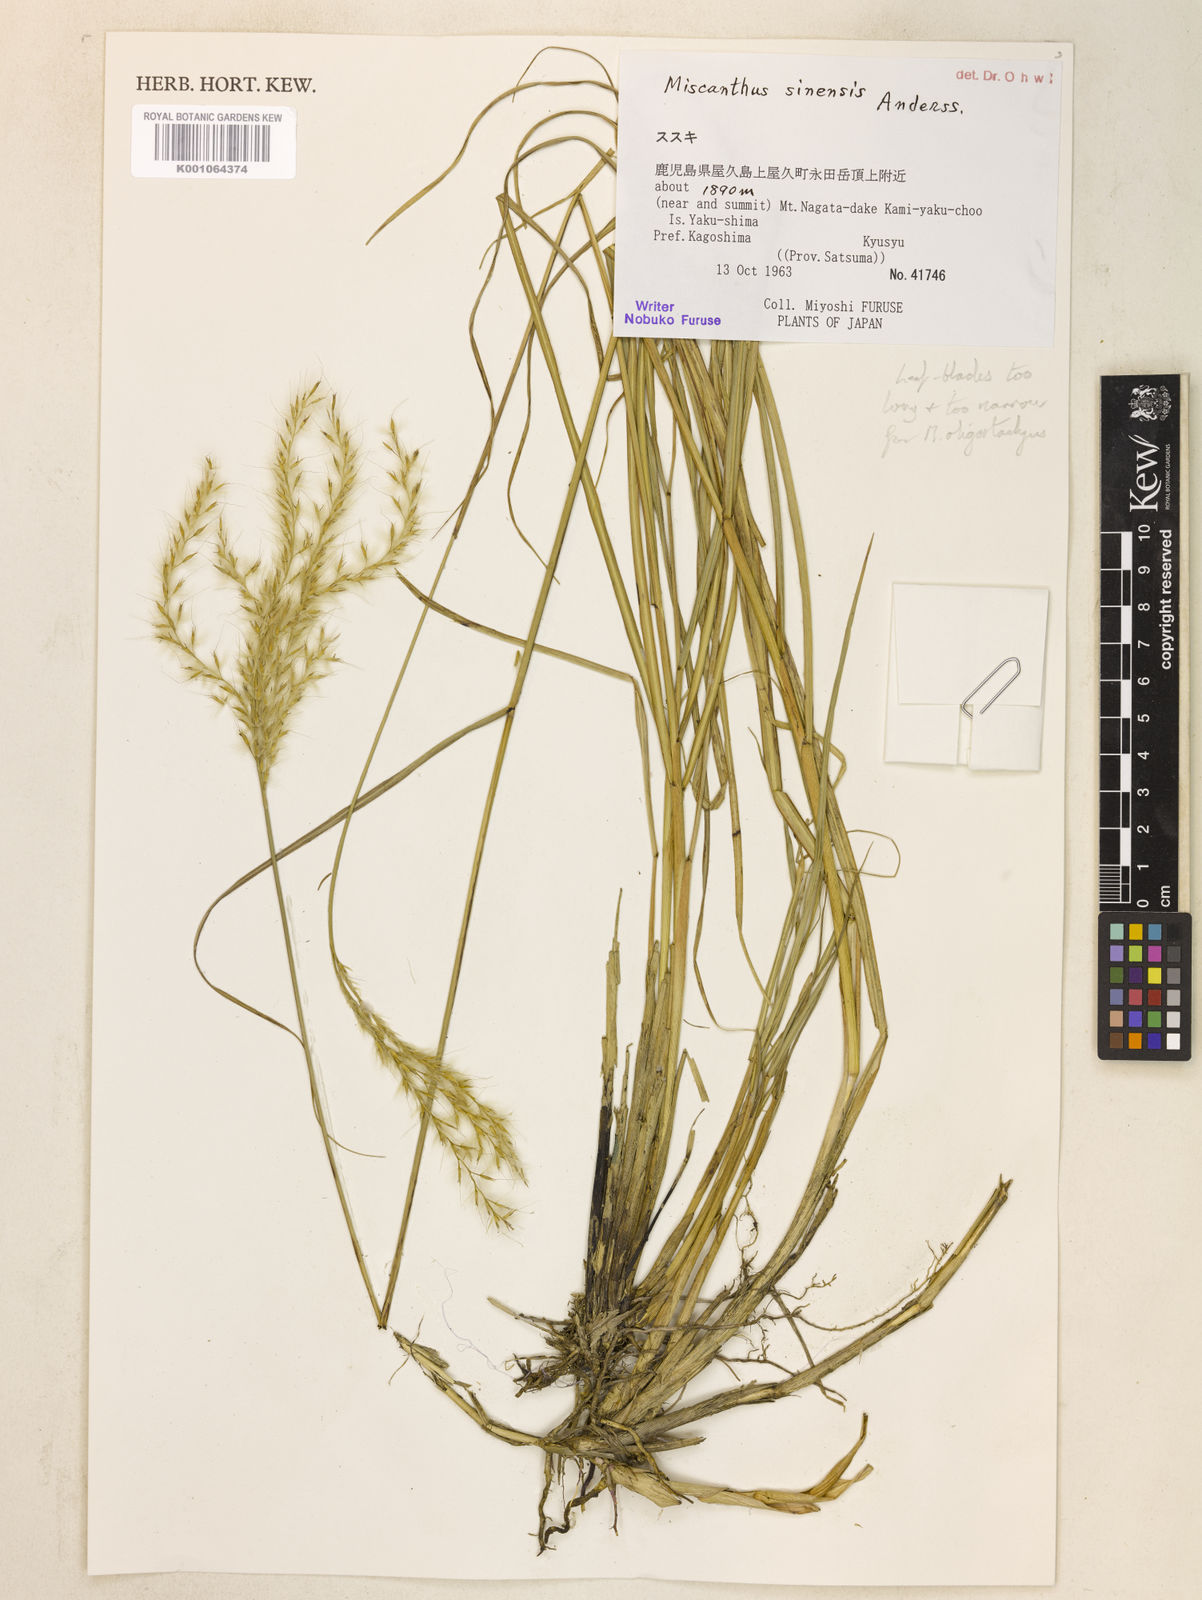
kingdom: Plantae
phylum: Tracheophyta
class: Liliopsida
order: Poales
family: Poaceae
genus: Miscanthus
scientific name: Miscanthus sinensis
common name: Chinese silvergrass
